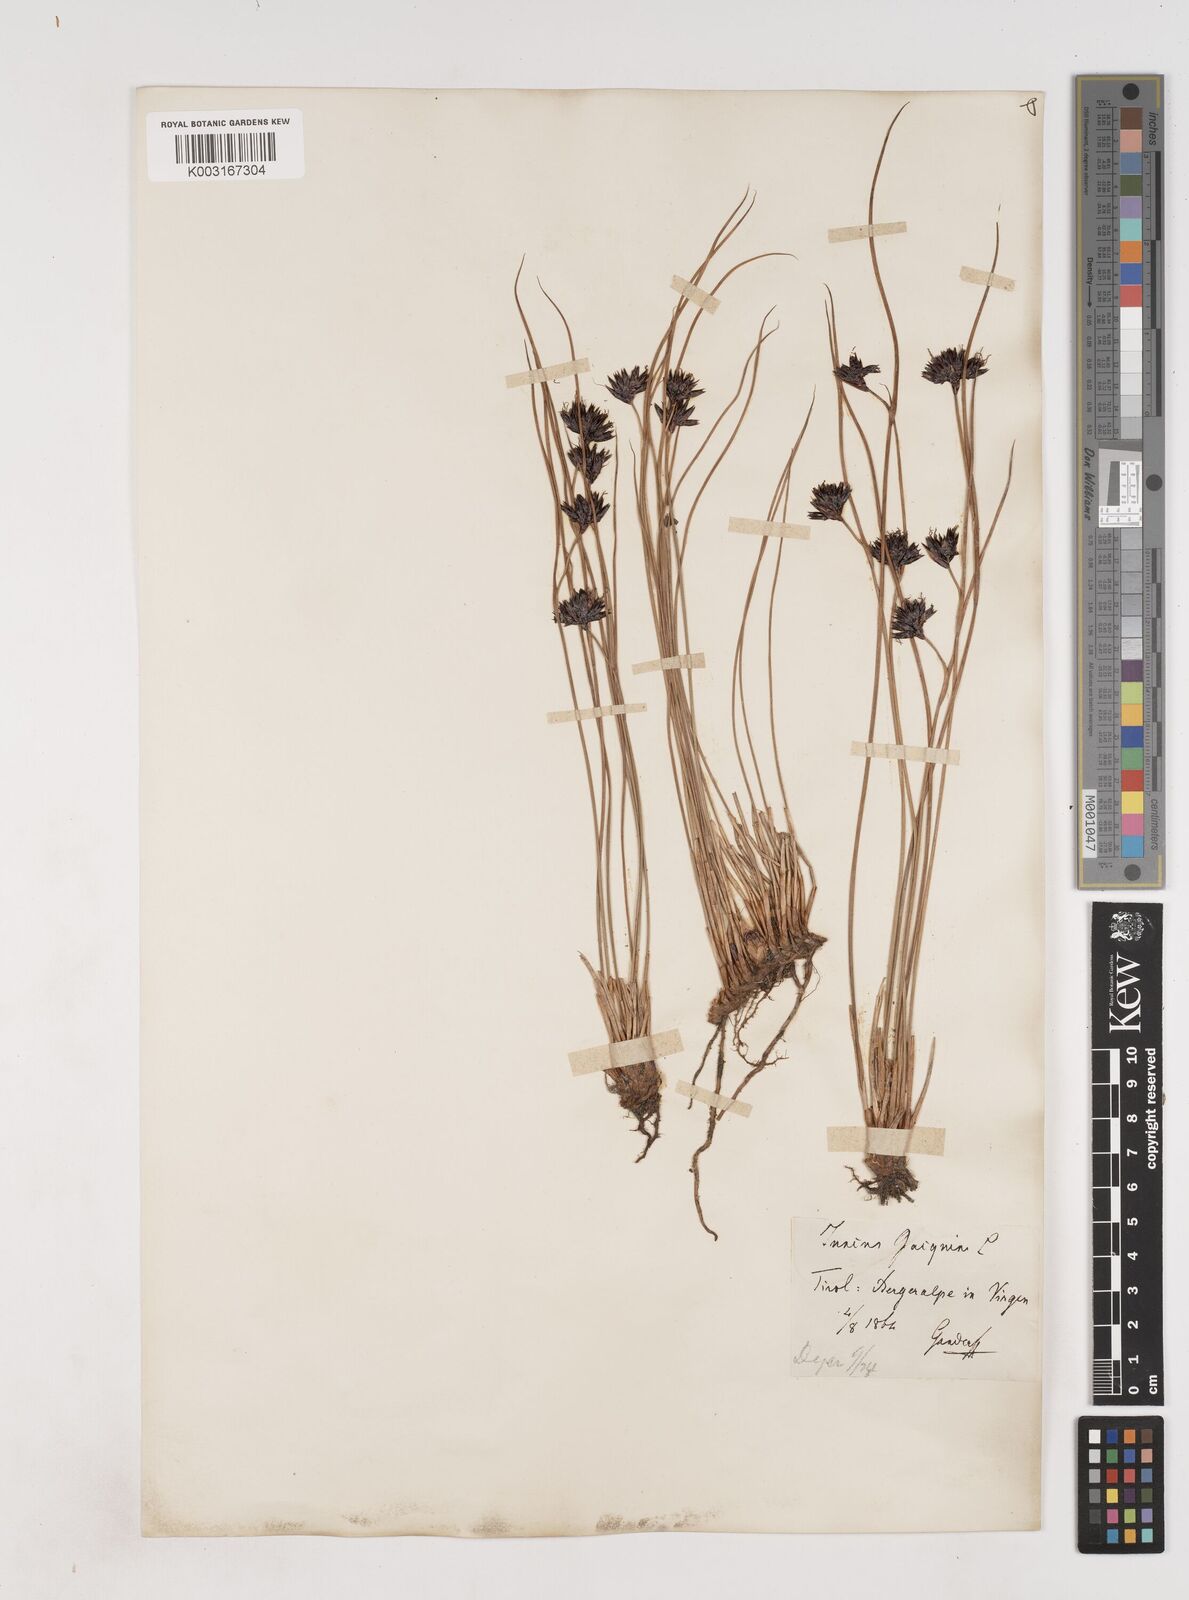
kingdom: Plantae
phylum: Tracheophyta
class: Liliopsida
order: Poales
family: Juncaceae
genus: Juncus
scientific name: Juncus jacquinii
